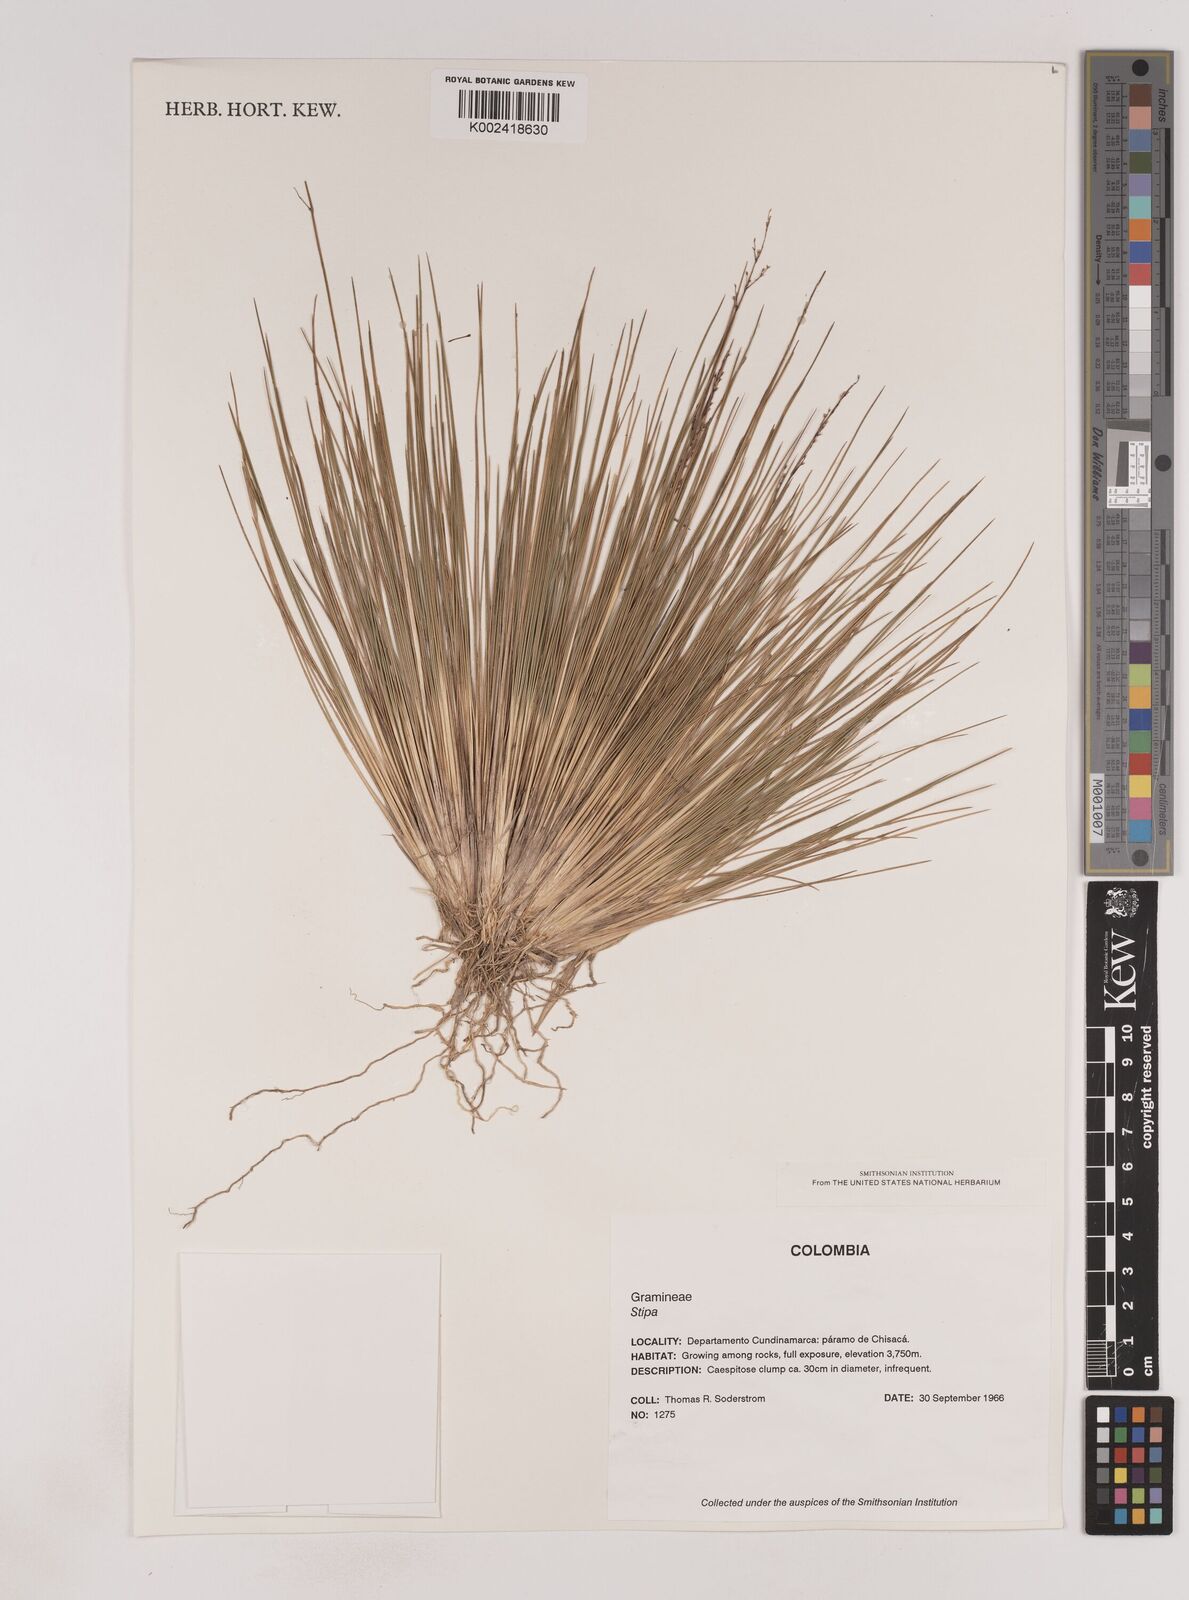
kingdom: Plantae
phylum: Tracheophyta
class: Liliopsida
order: Poales
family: Poaceae
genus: Lorenzochloa
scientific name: Lorenzochloa erectifolia
